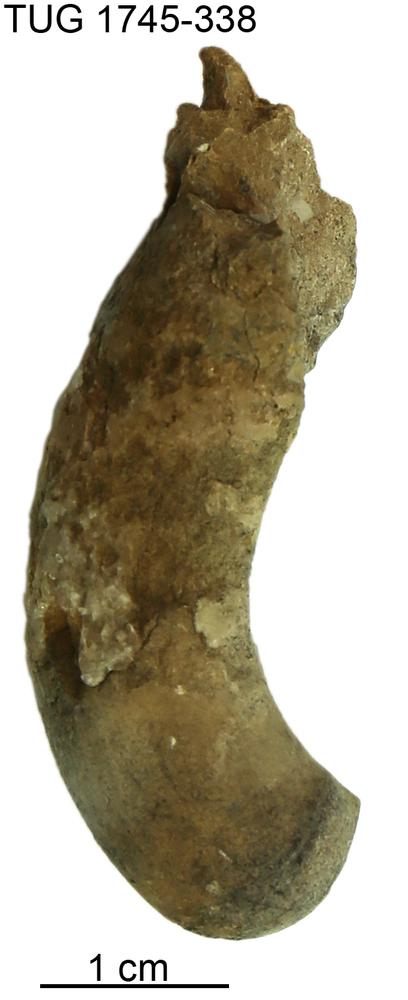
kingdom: Animalia
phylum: Mollusca
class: Cephalopoda
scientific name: Cephalopoda
